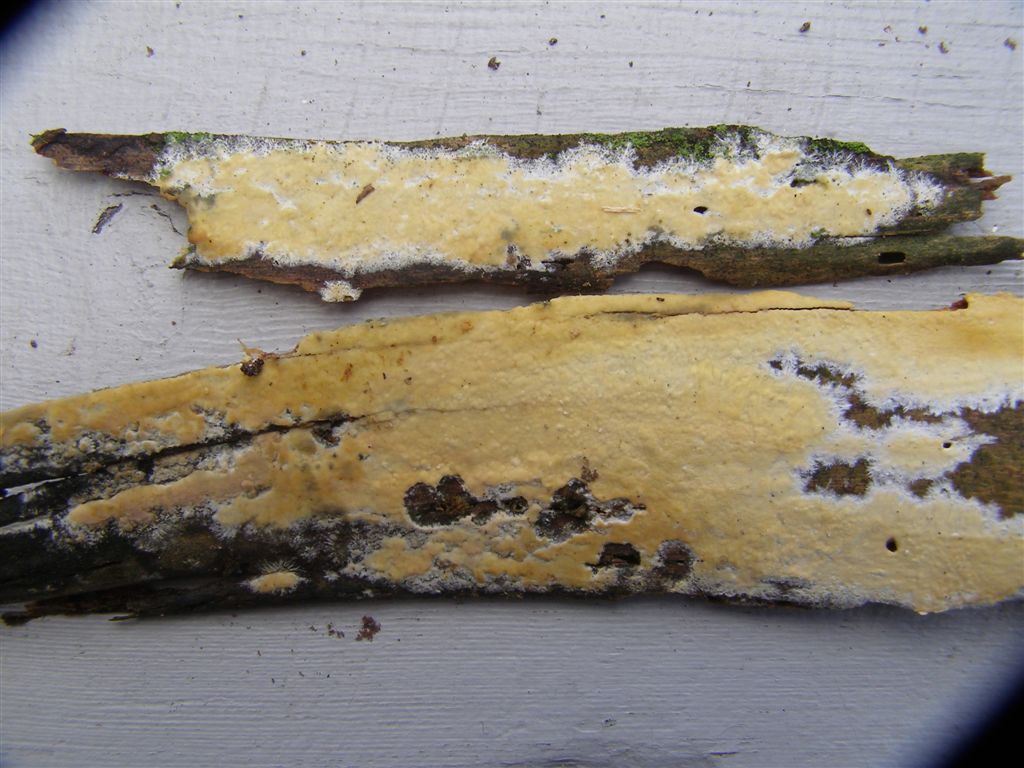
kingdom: Fungi
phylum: Basidiomycota
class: Agaricomycetes
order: Russulales
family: Peniophoraceae
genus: Gloiothele
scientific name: Gloiothele citrina
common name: citronskorpe
